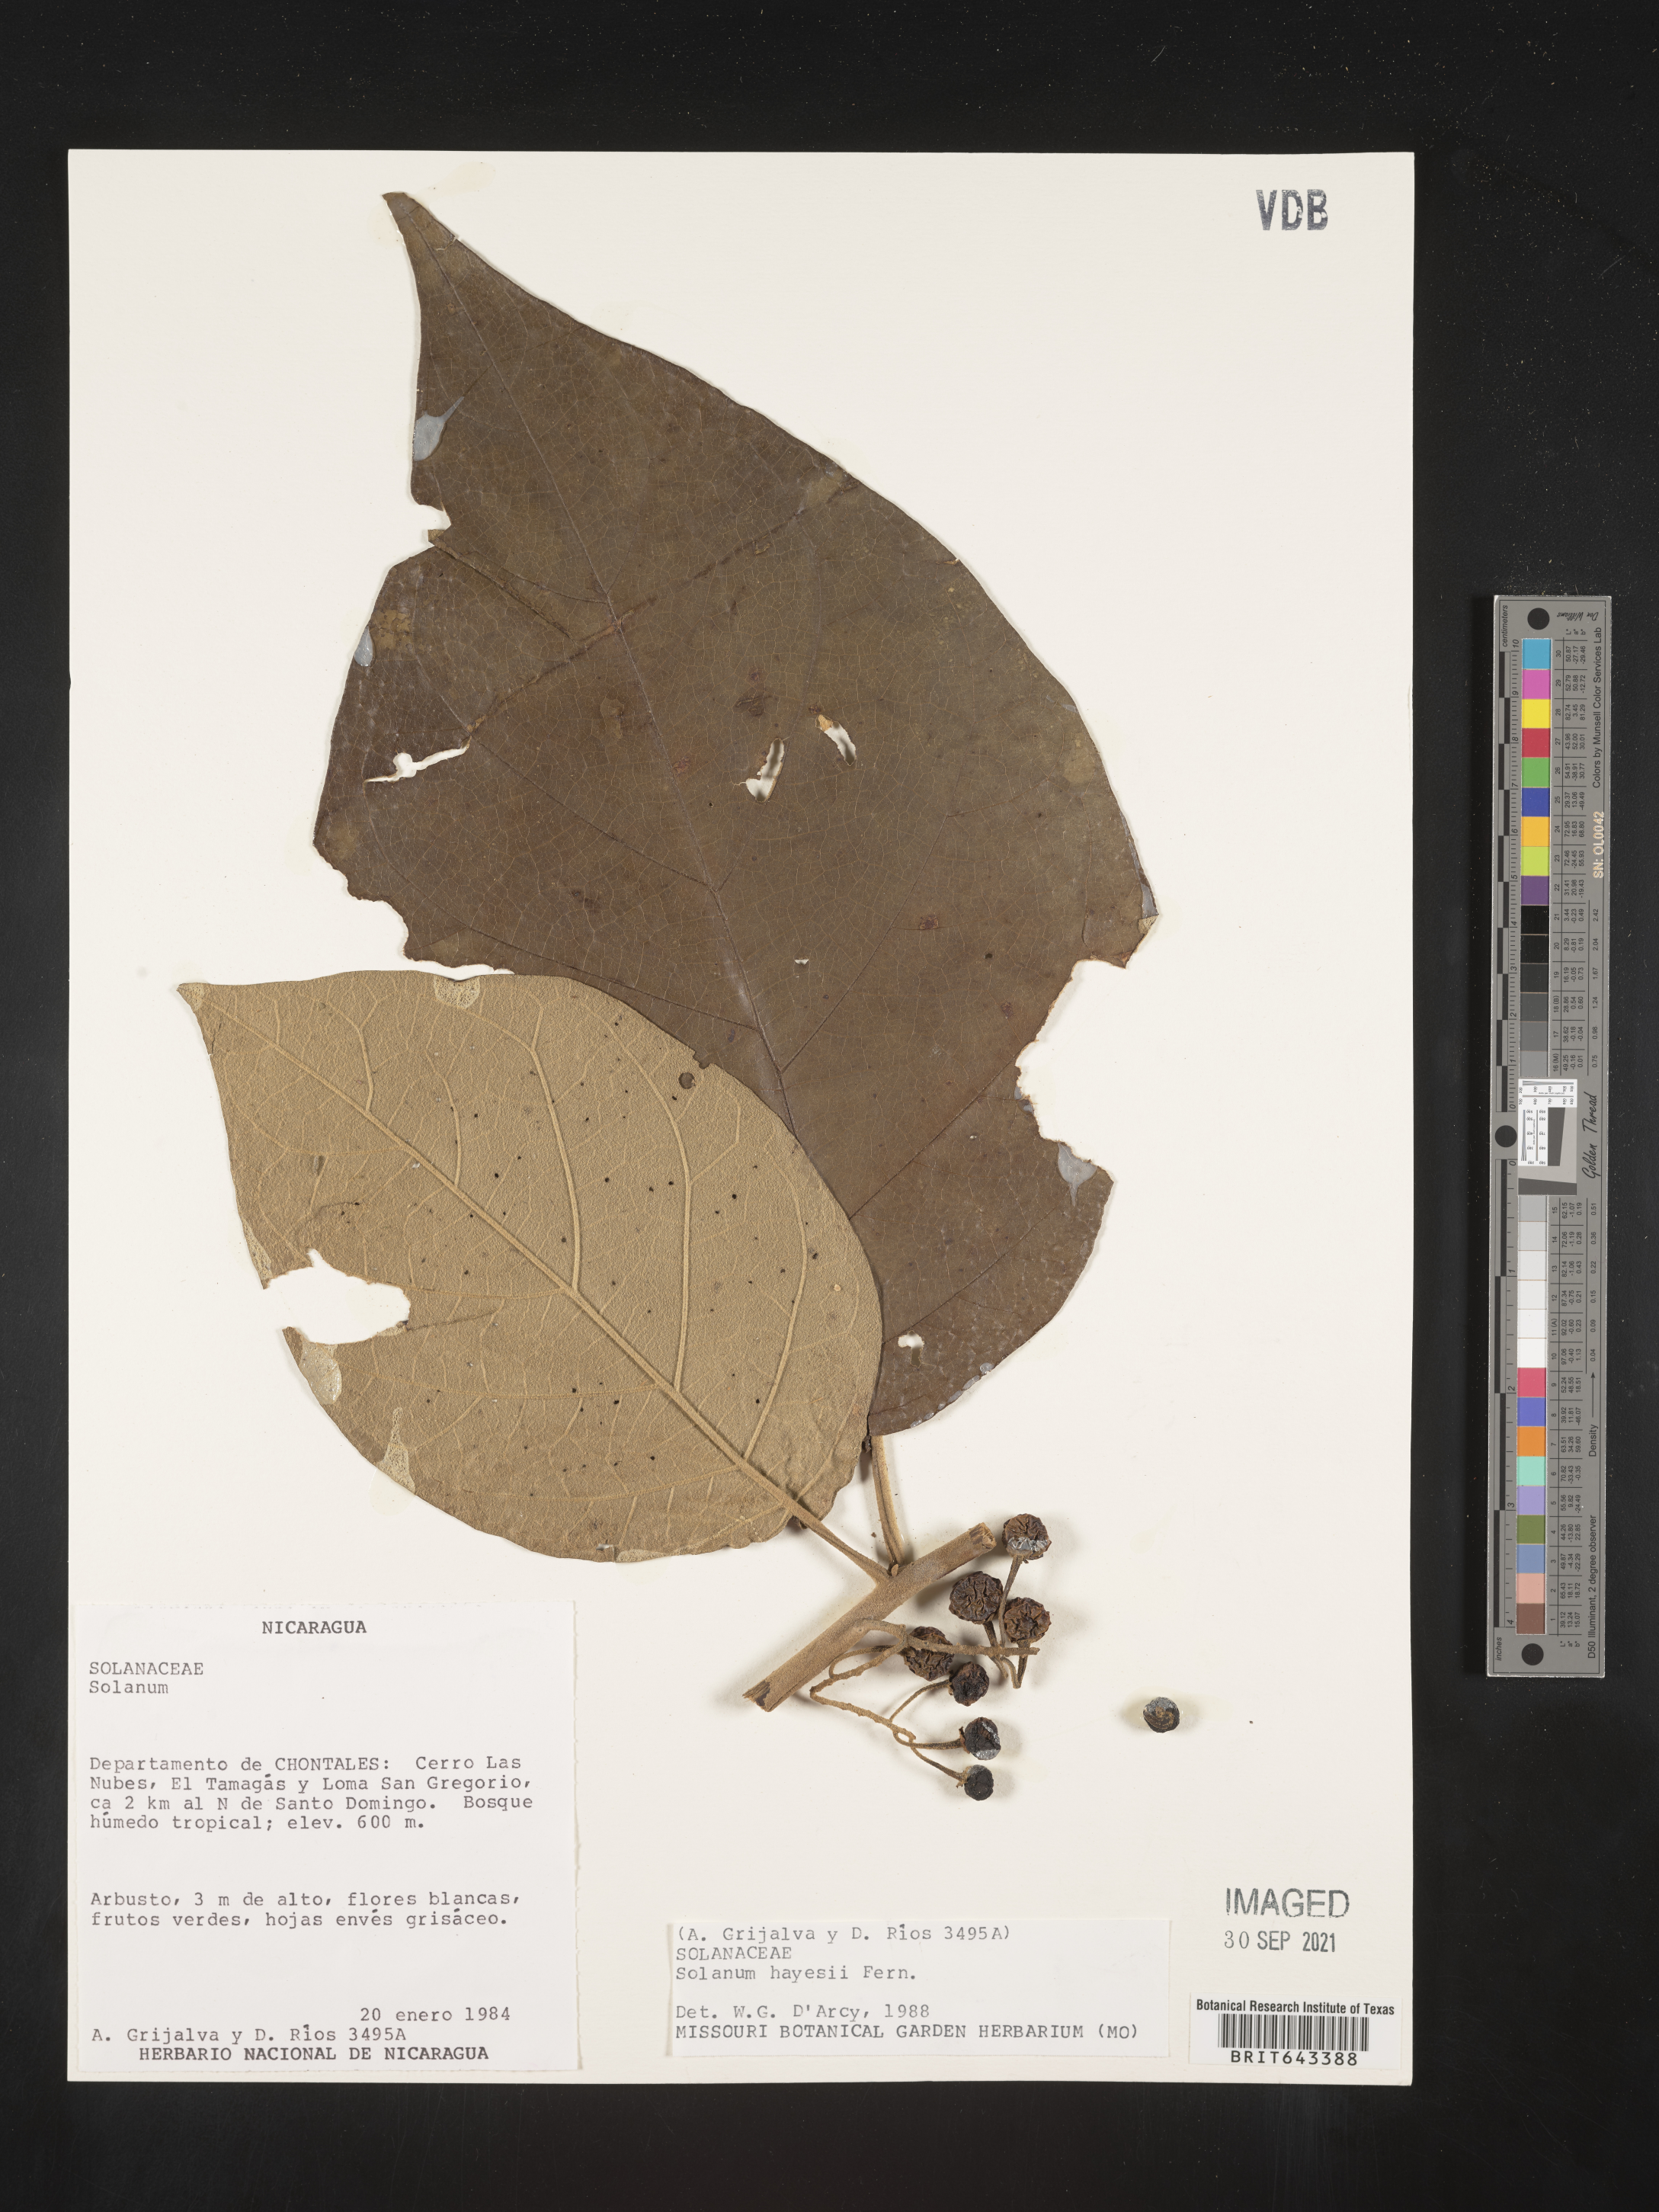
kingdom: Plantae
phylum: Tracheophyta
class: Magnoliopsida
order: Solanales
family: Solanaceae
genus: Solanum
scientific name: Solanum
